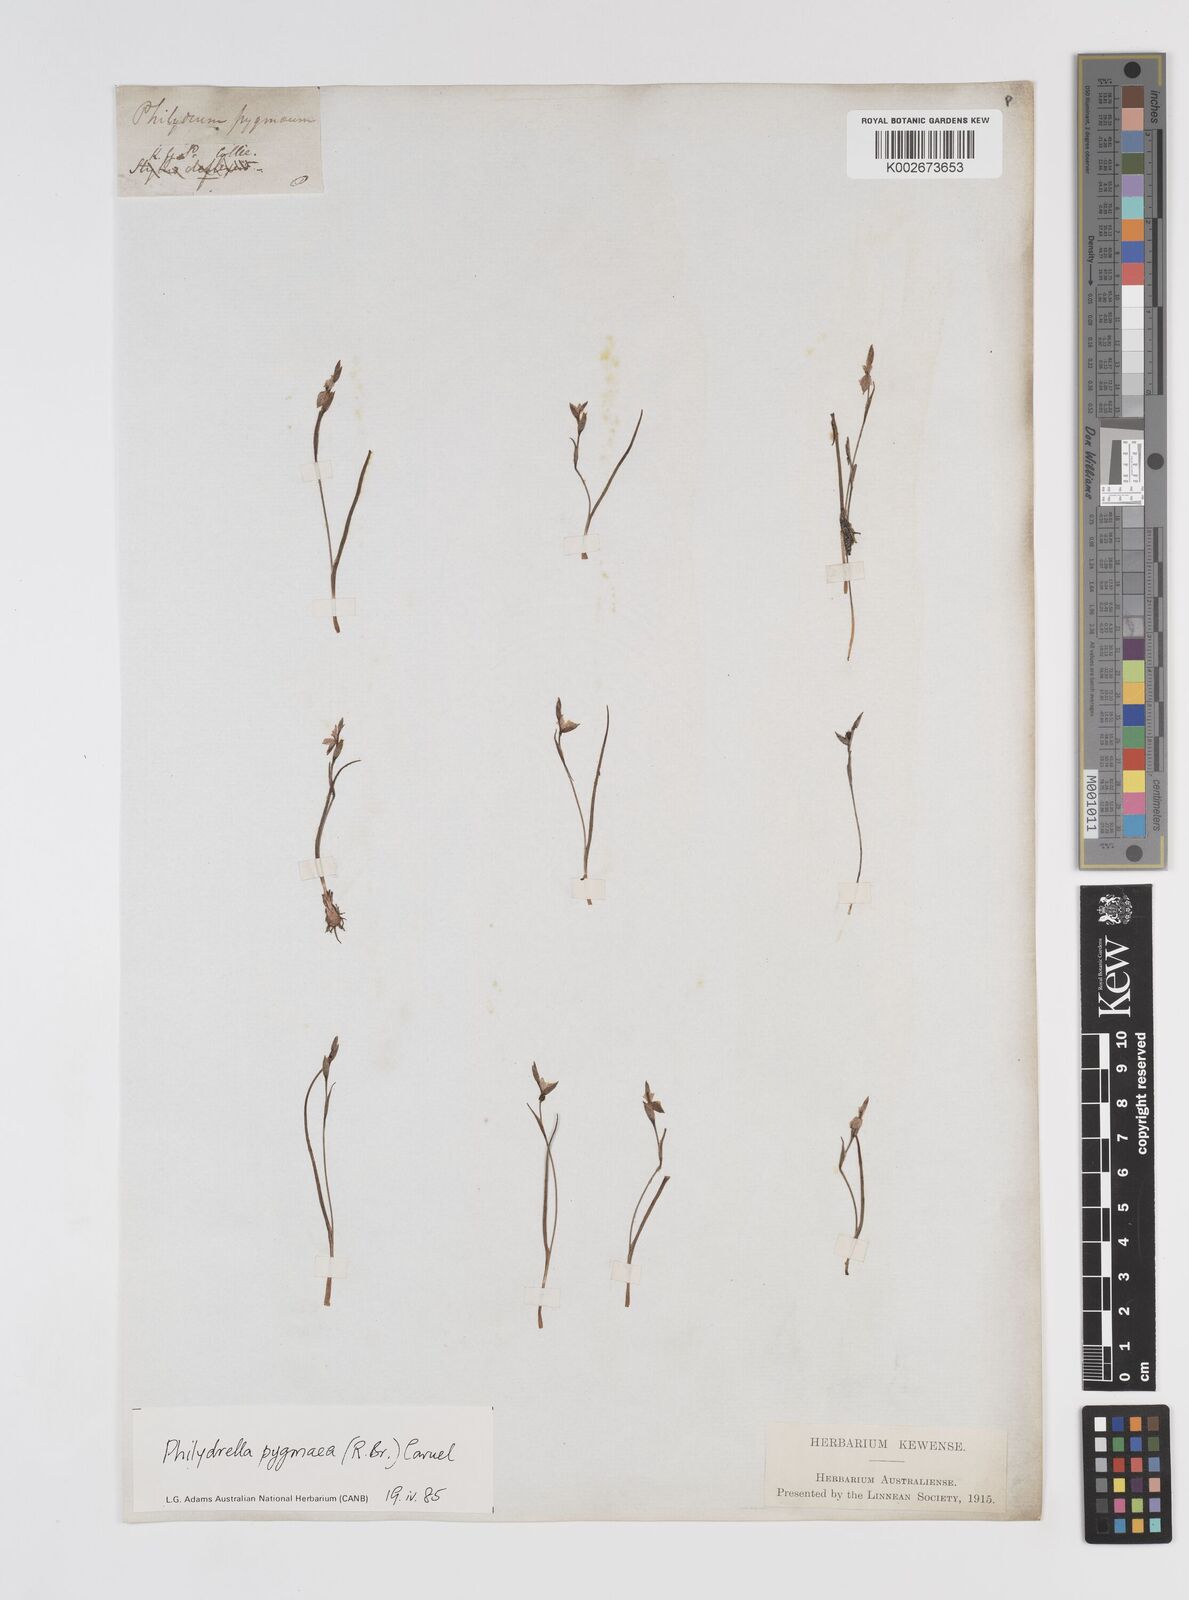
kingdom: Plantae
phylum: Tracheophyta
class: Liliopsida
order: Commelinales
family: Philydraceae
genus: Philydrella
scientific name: Philydrella pygmaea
